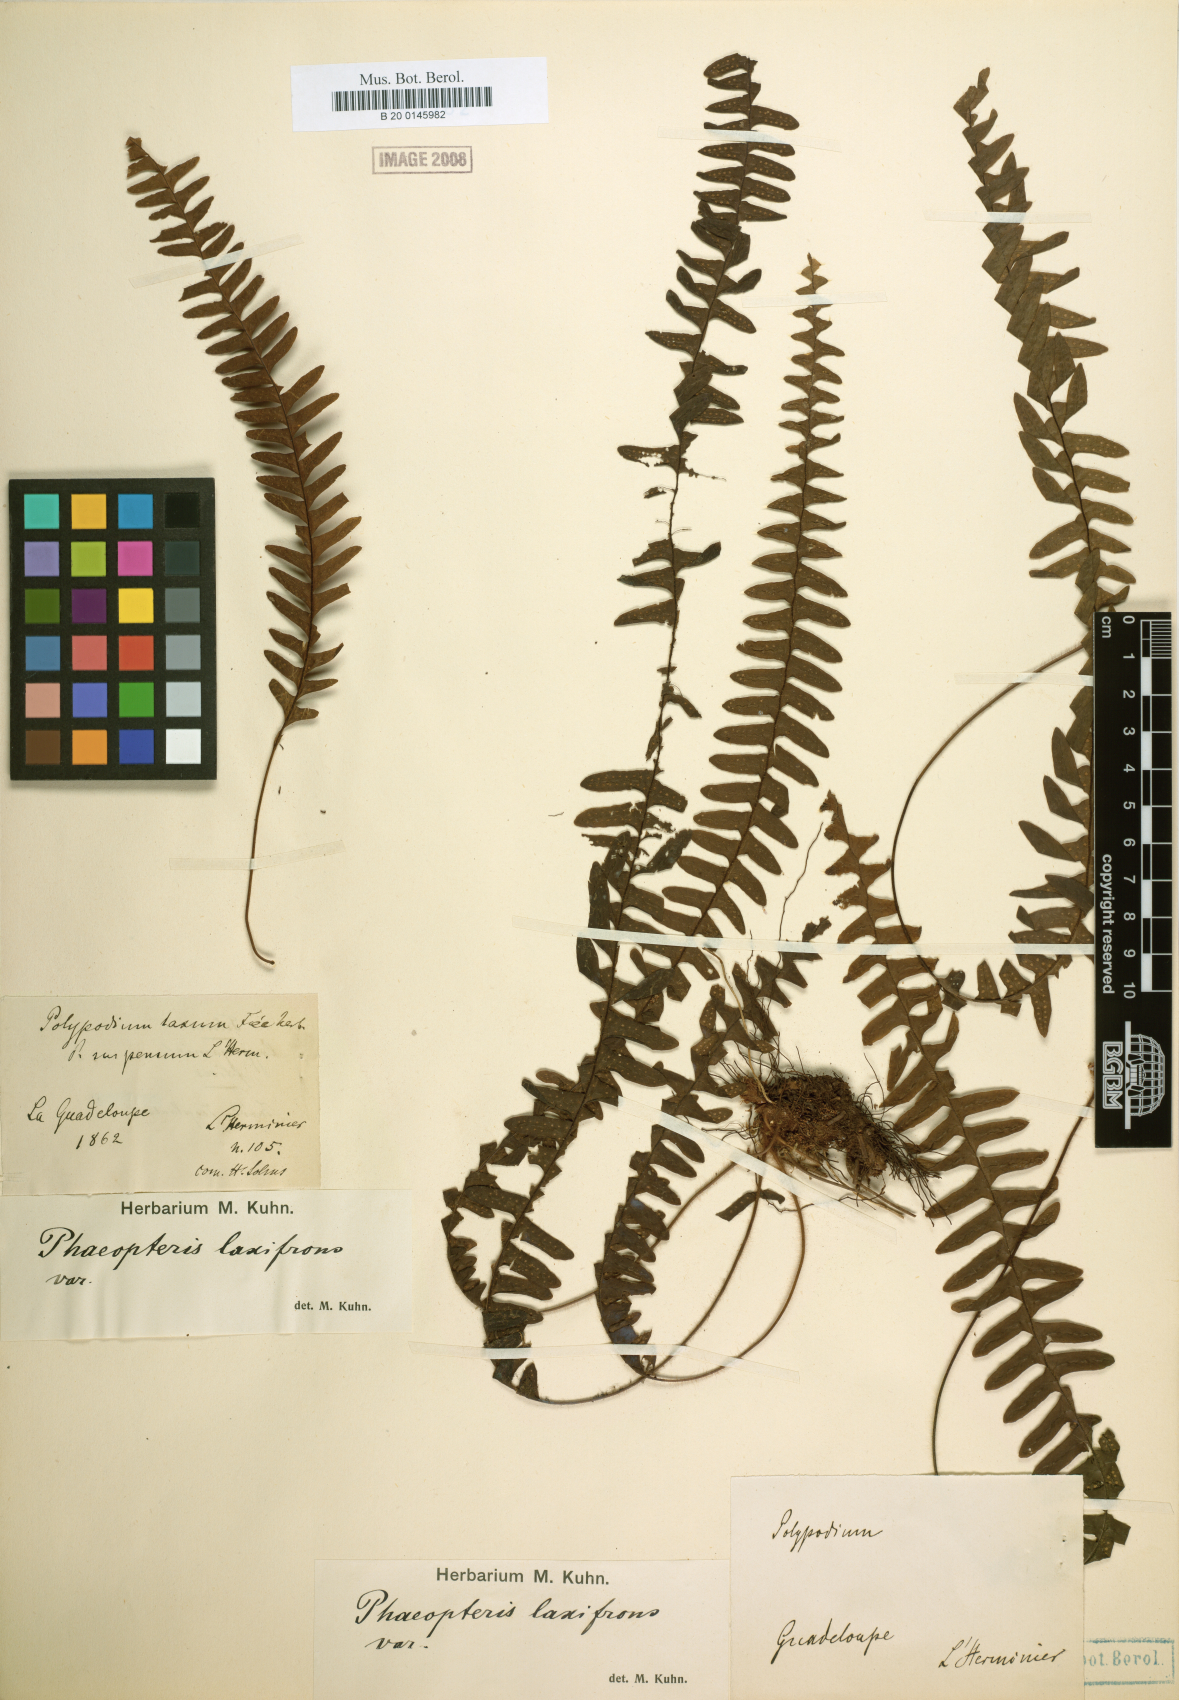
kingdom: Plantae
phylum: Tracheophyta
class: Polypodiopsida
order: Polypodiales
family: Polypodiaceae
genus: Terpsichore
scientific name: Terpsichore asplenifolia
